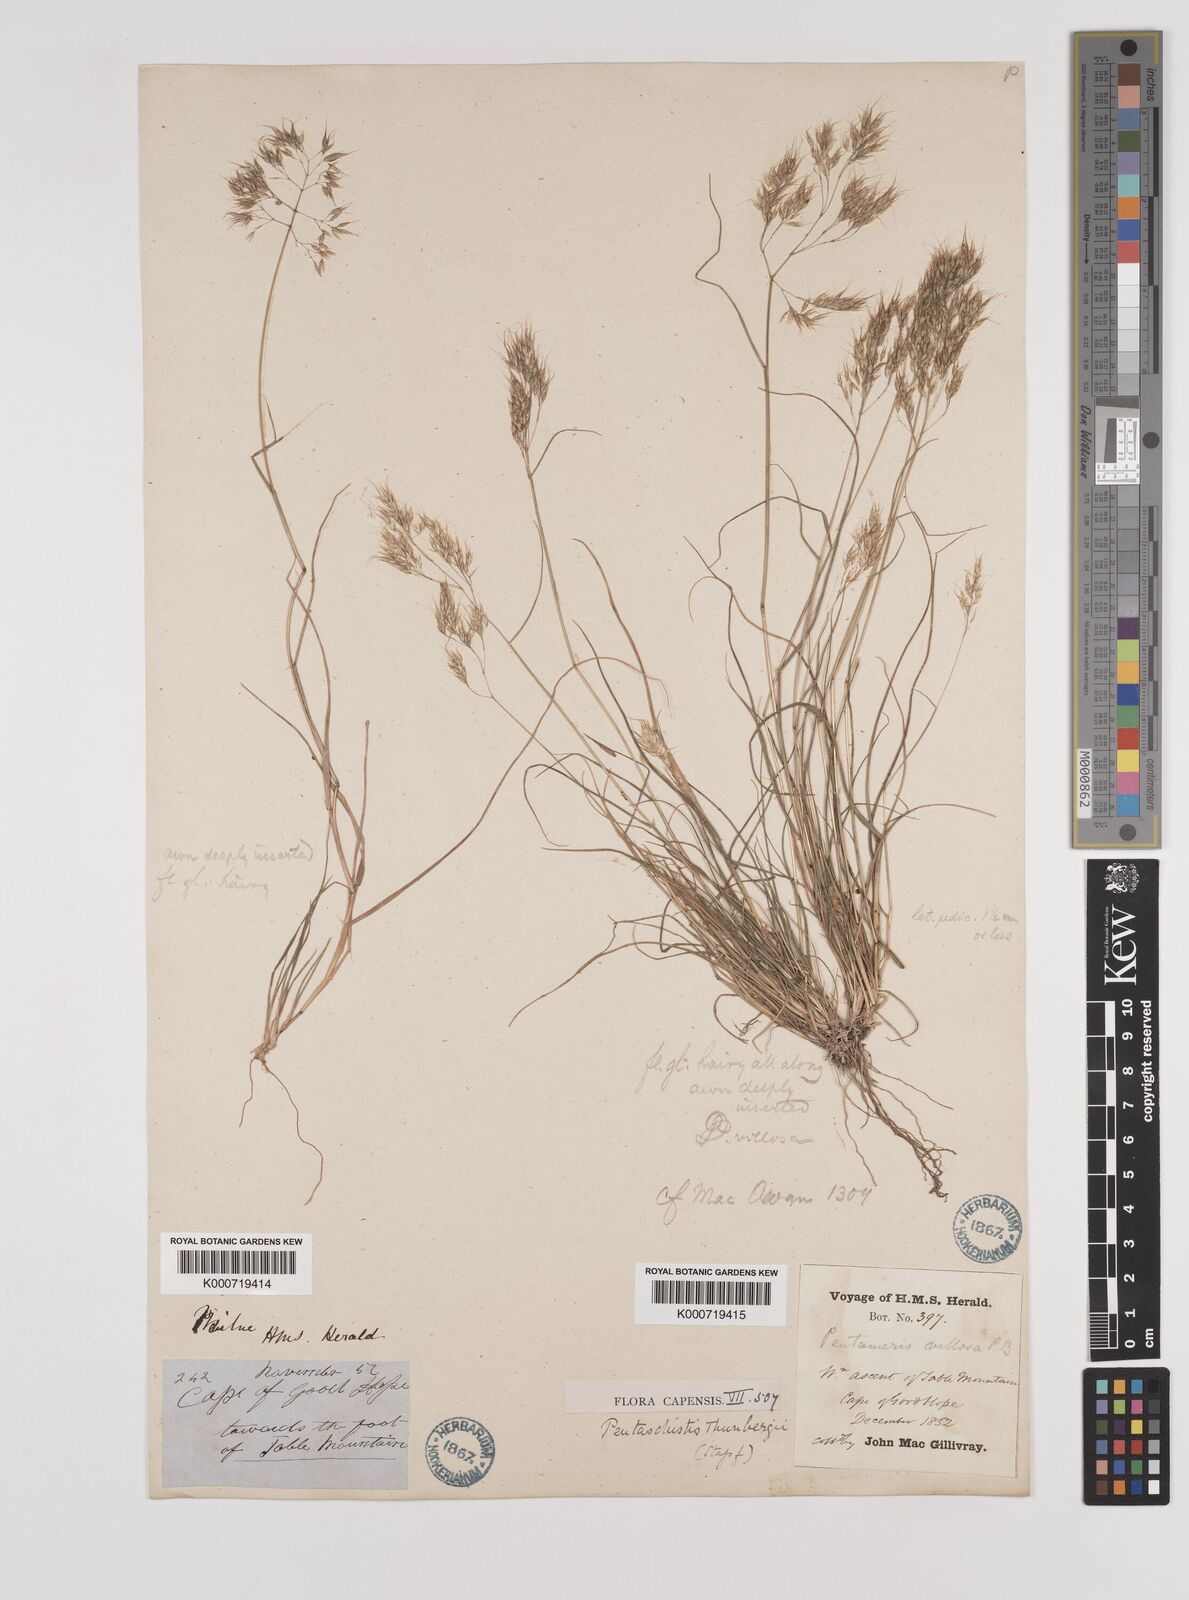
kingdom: Plantae
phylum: Tracheophyta
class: Liliopsida
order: Poales
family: Poaceae
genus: Pentameris
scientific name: Pentameris triseta
